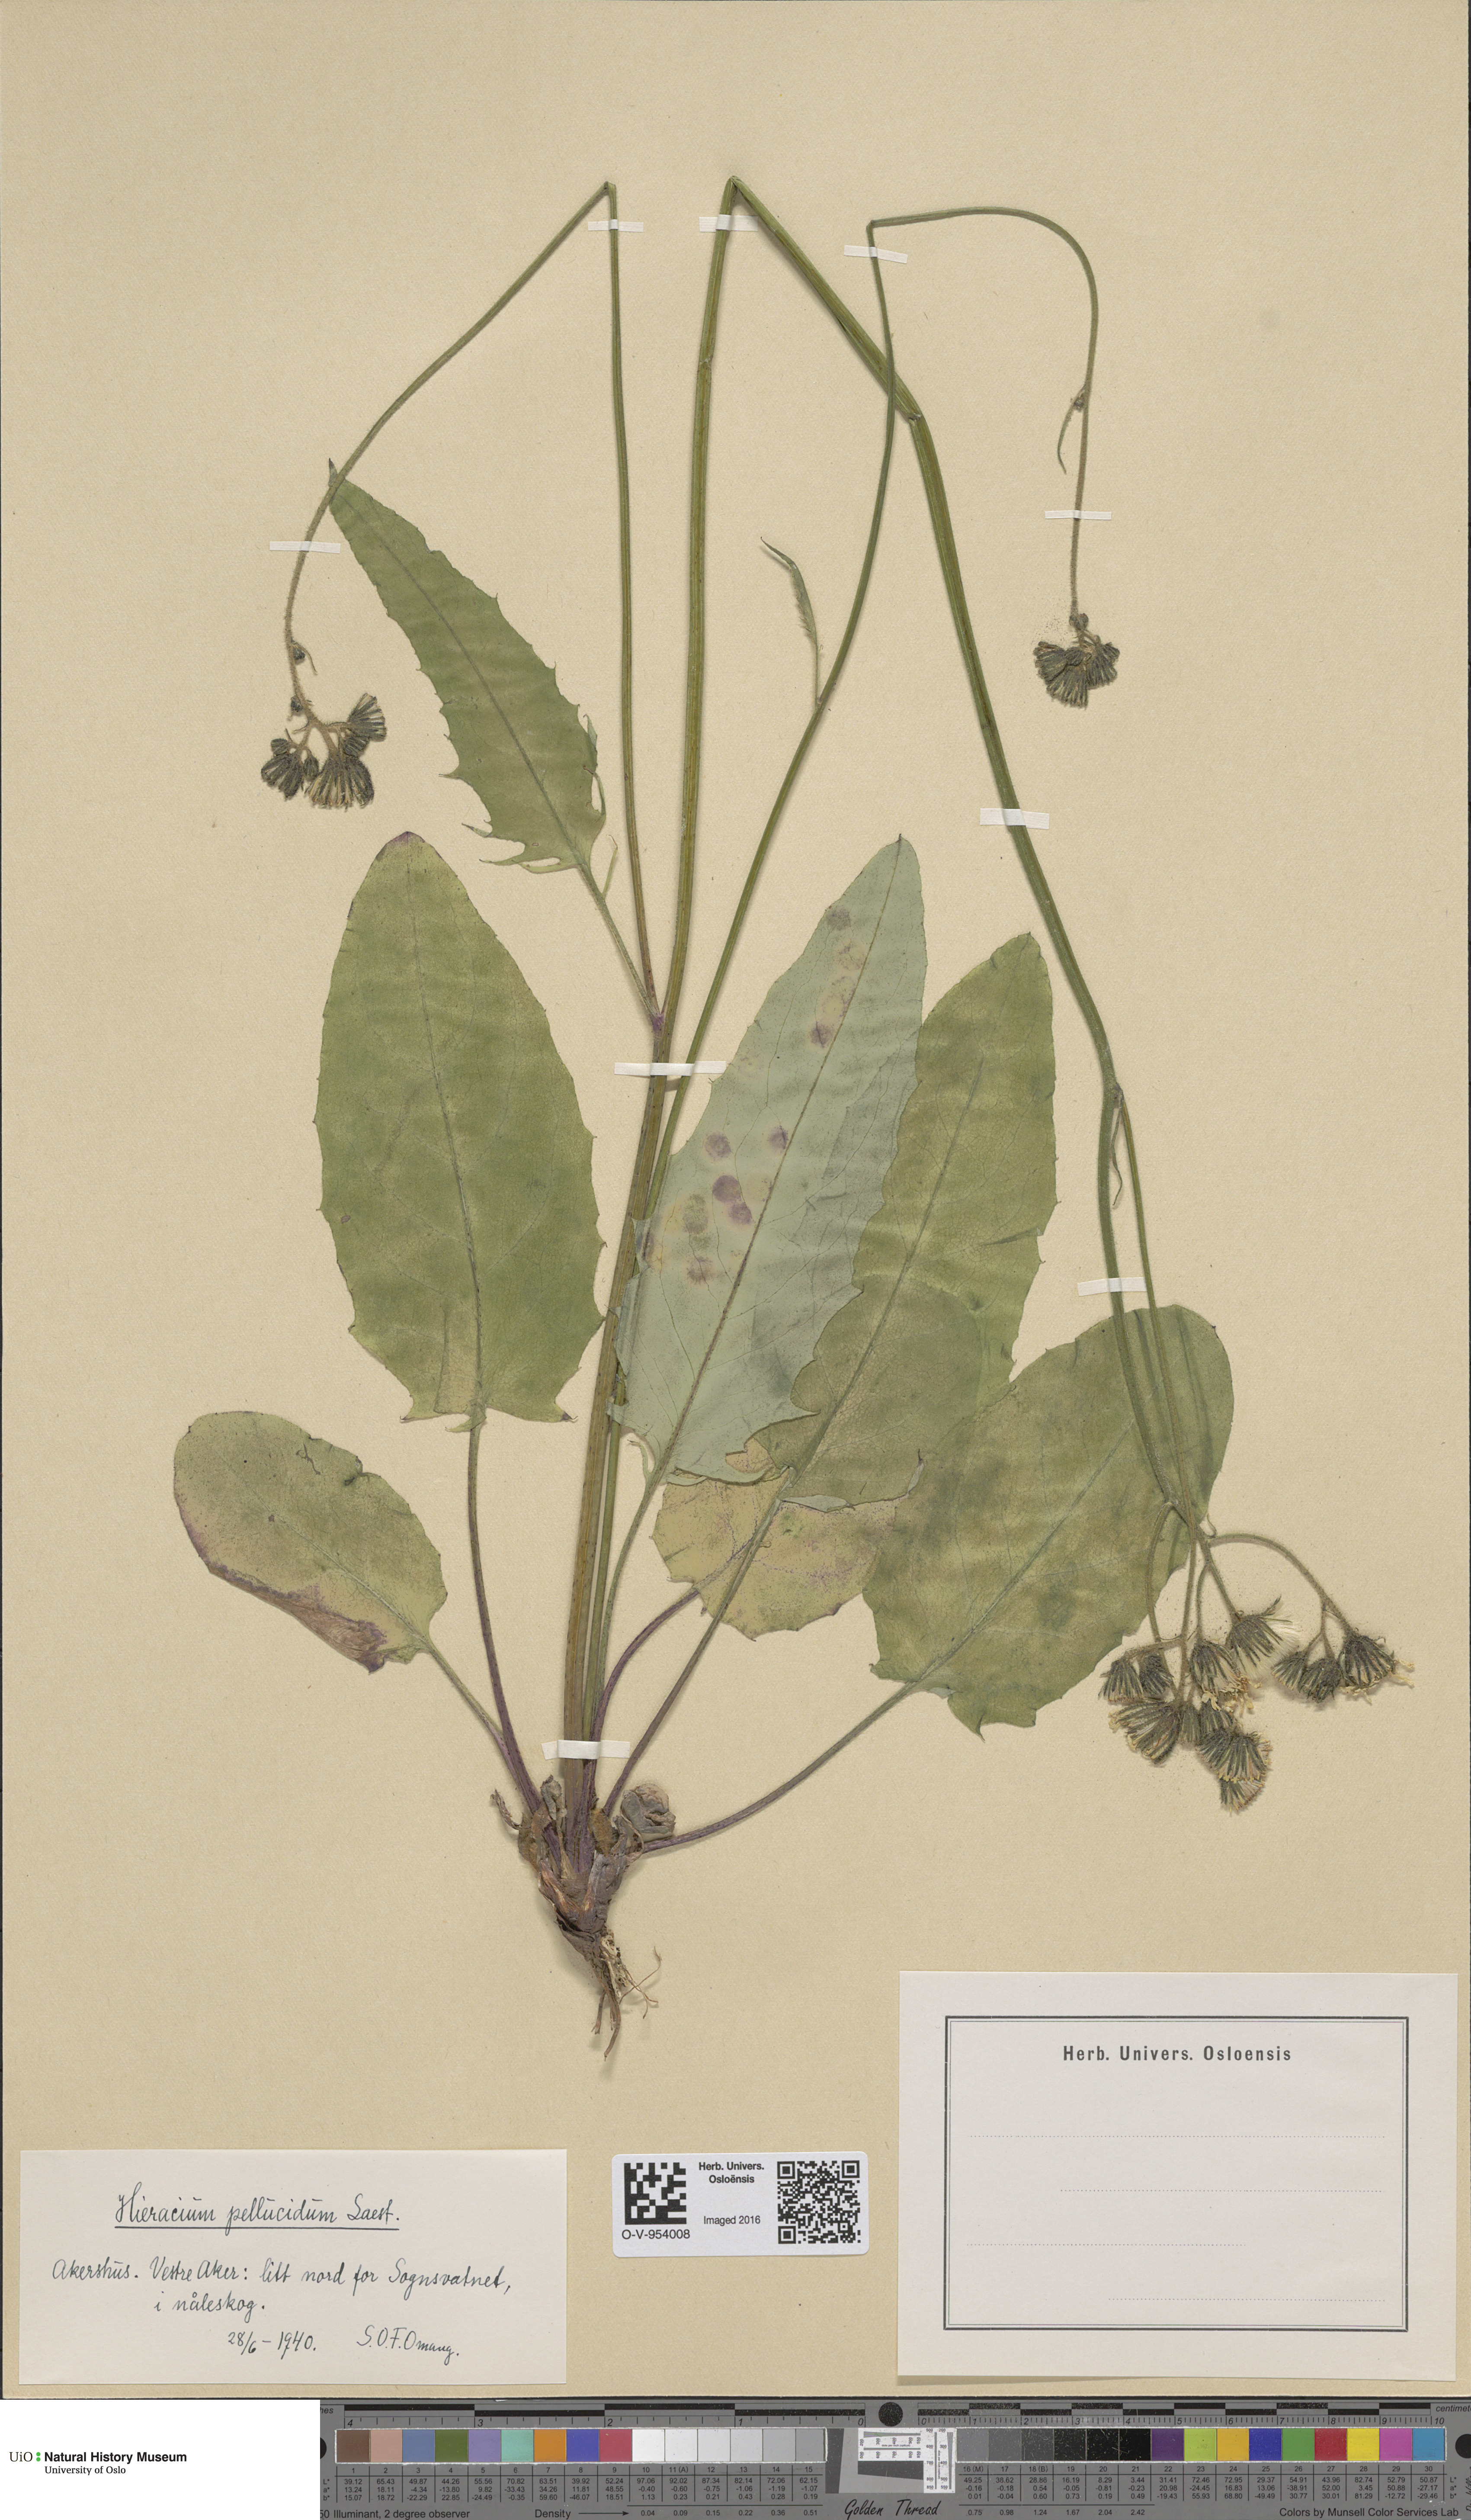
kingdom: Plantae
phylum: Tracheophyta
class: Magnoliopsida
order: Asterales
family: Asteraceae
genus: Hieracium
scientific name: Hieracium
